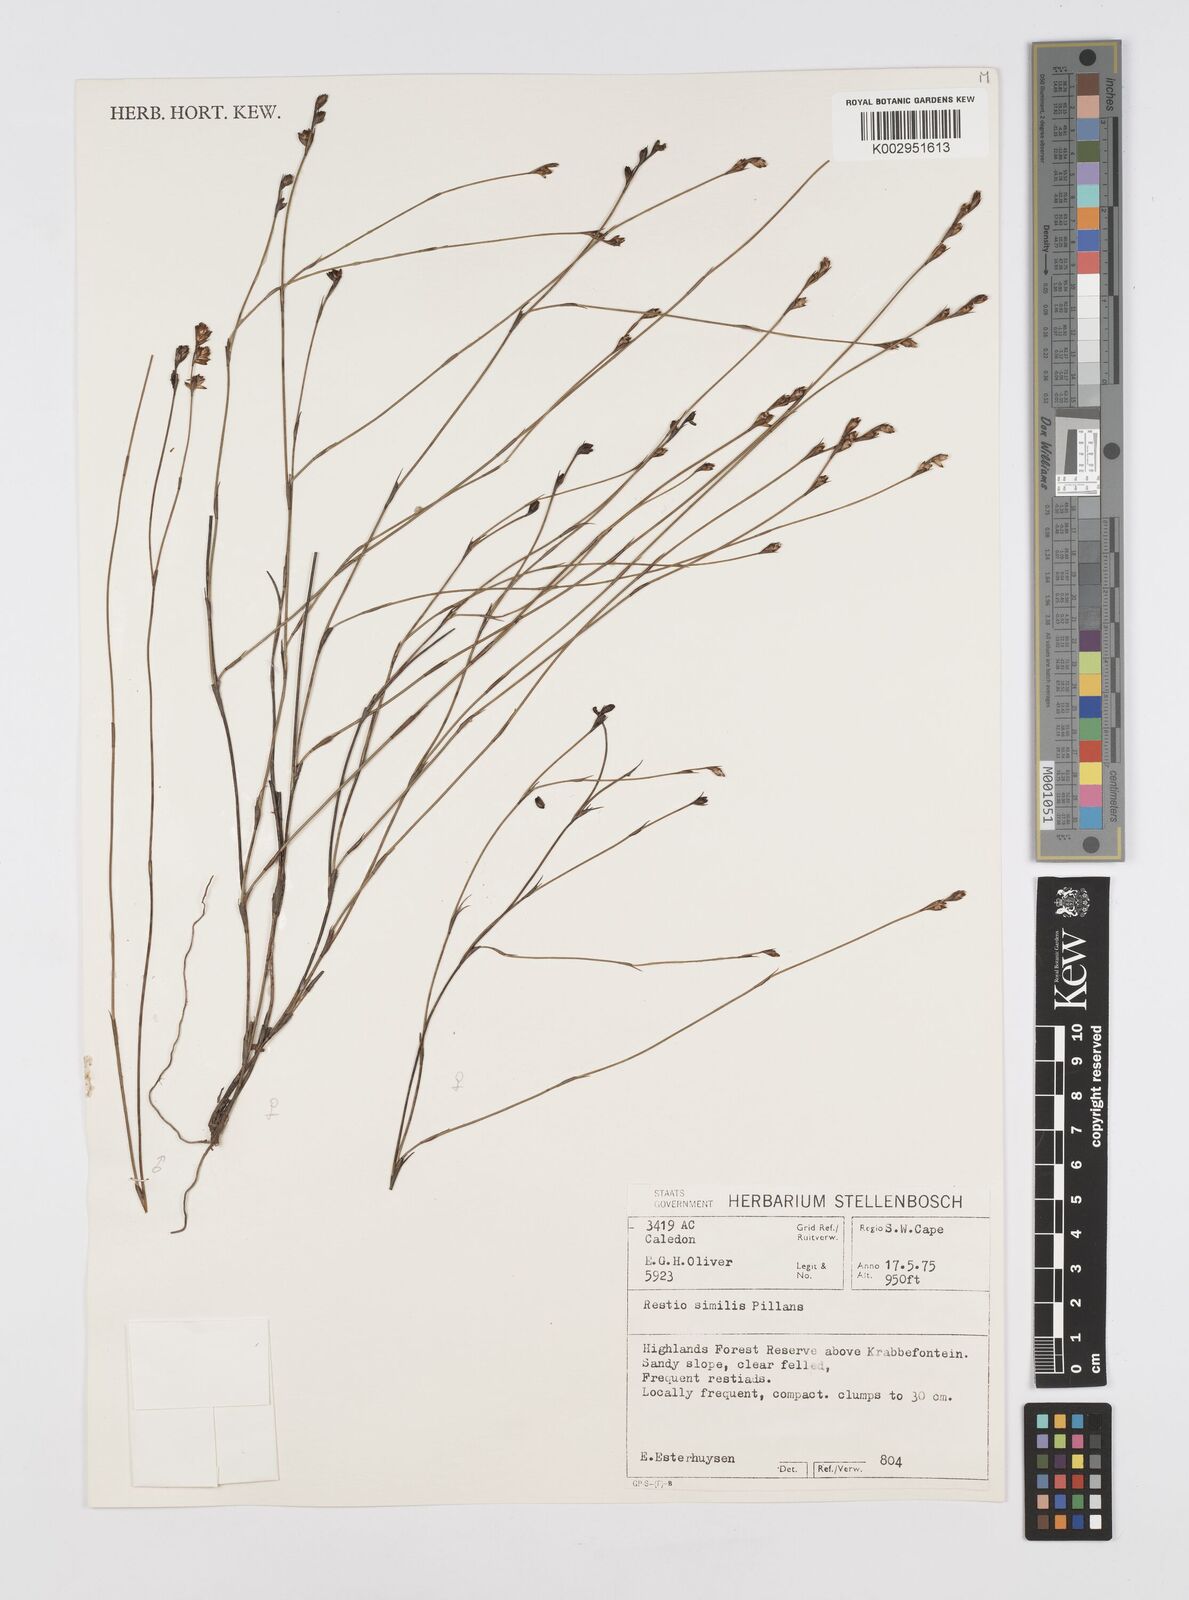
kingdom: Plantae
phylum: Tracheophyta
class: Liliopsida
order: Poales
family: Restionaceae
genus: Restio
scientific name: Restio similis
